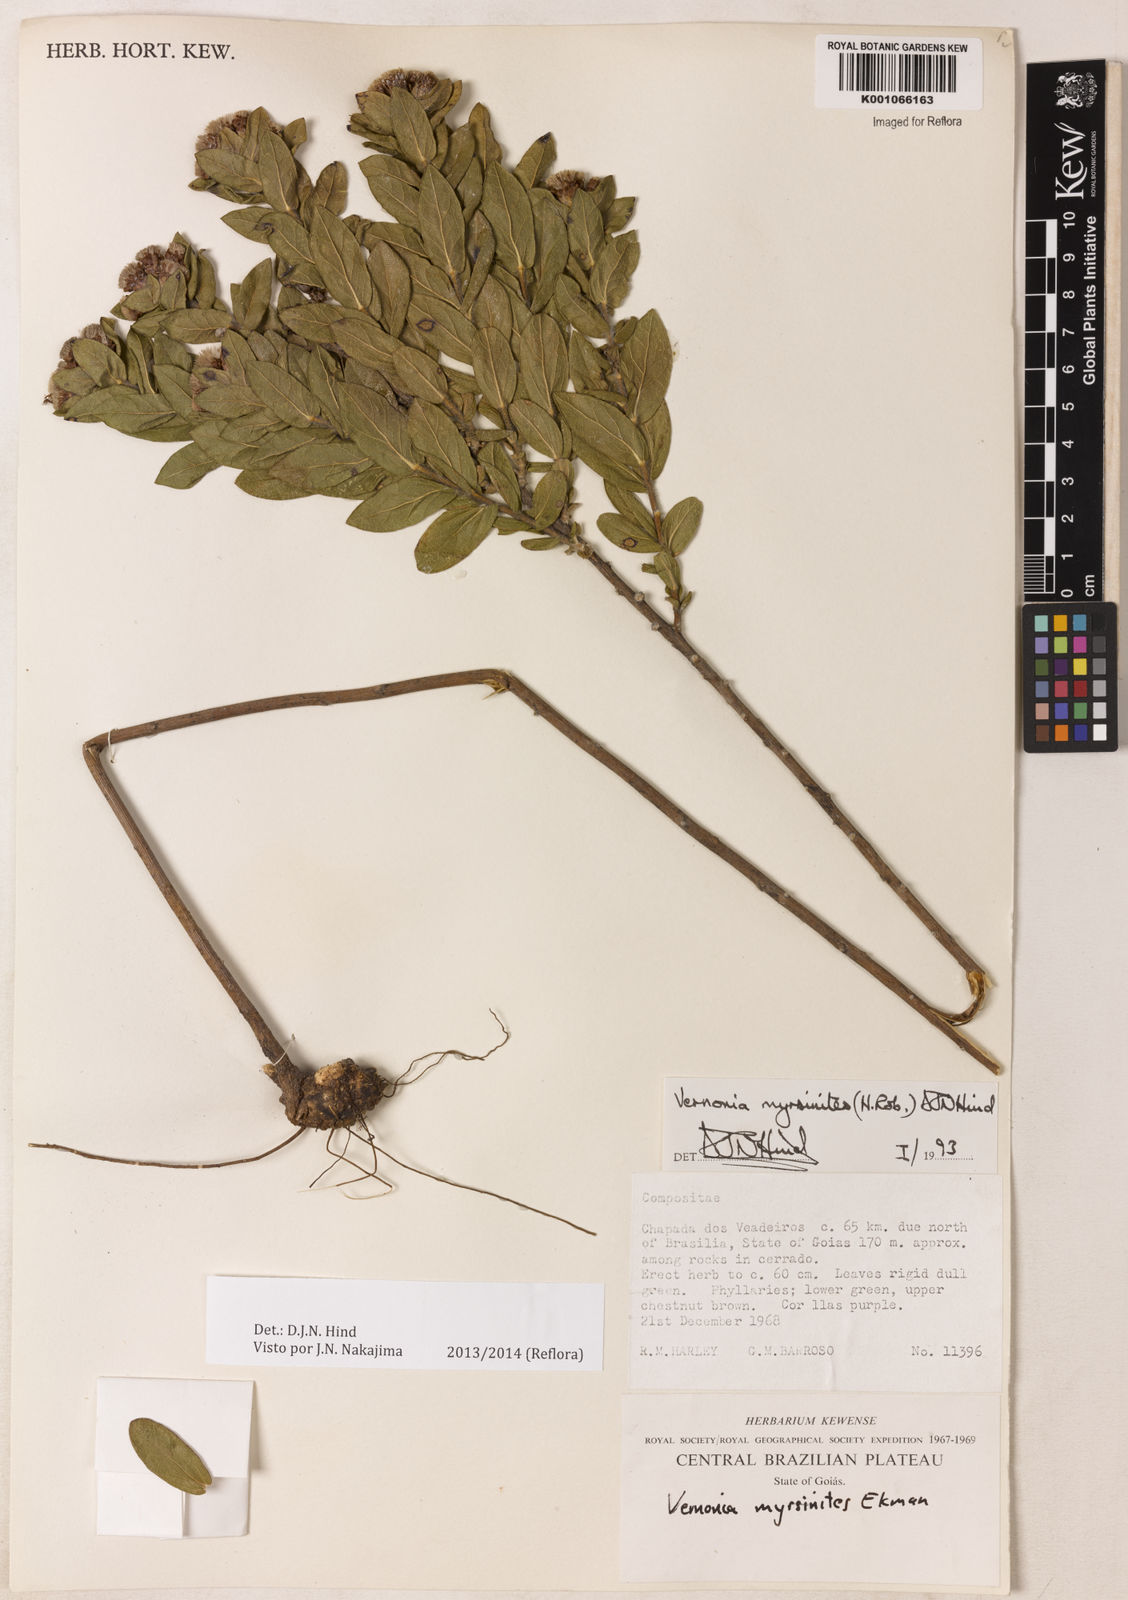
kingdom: Plantae
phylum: Tracheophyta
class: Magnoliopsida
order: Asterales
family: Asteraceae
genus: Lessingianthus
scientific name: Lessingianthus myrsinites
